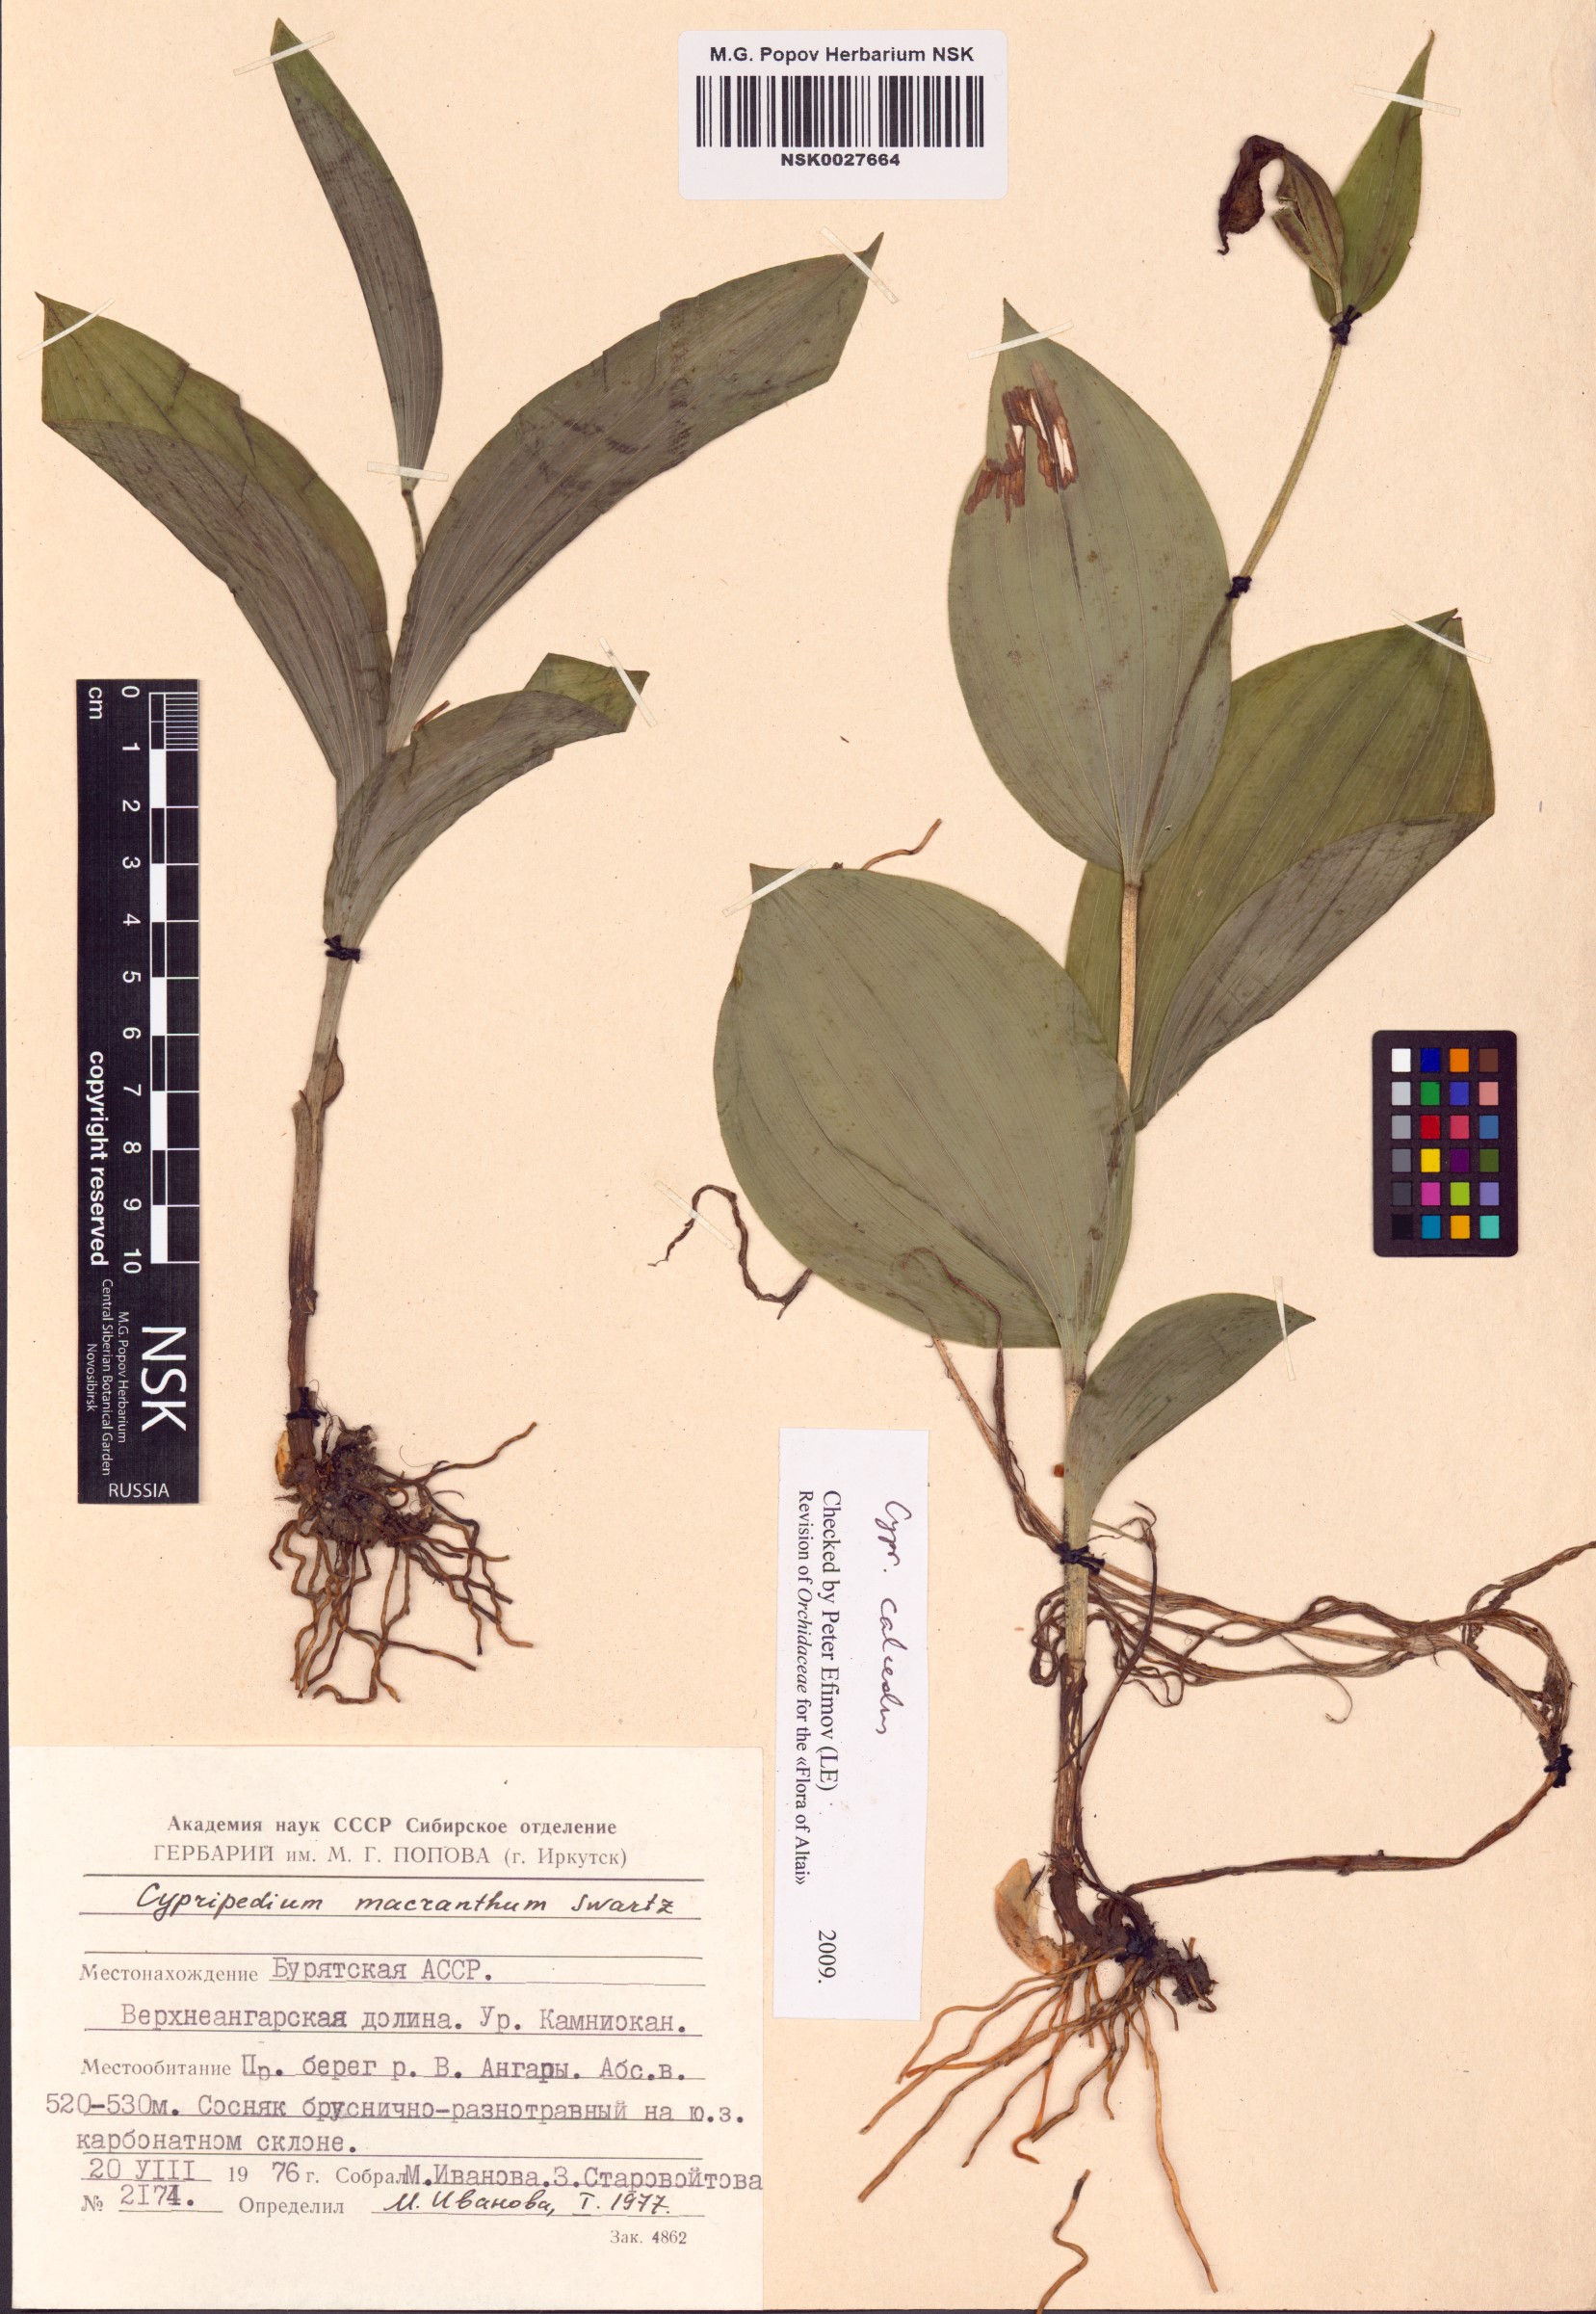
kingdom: Plantae
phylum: Tracheophyta
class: Liliopsida
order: Asparagales
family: Orchidaceae
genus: Cypripedium
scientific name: Cypripedium calceolus
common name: Lady's-slipper
